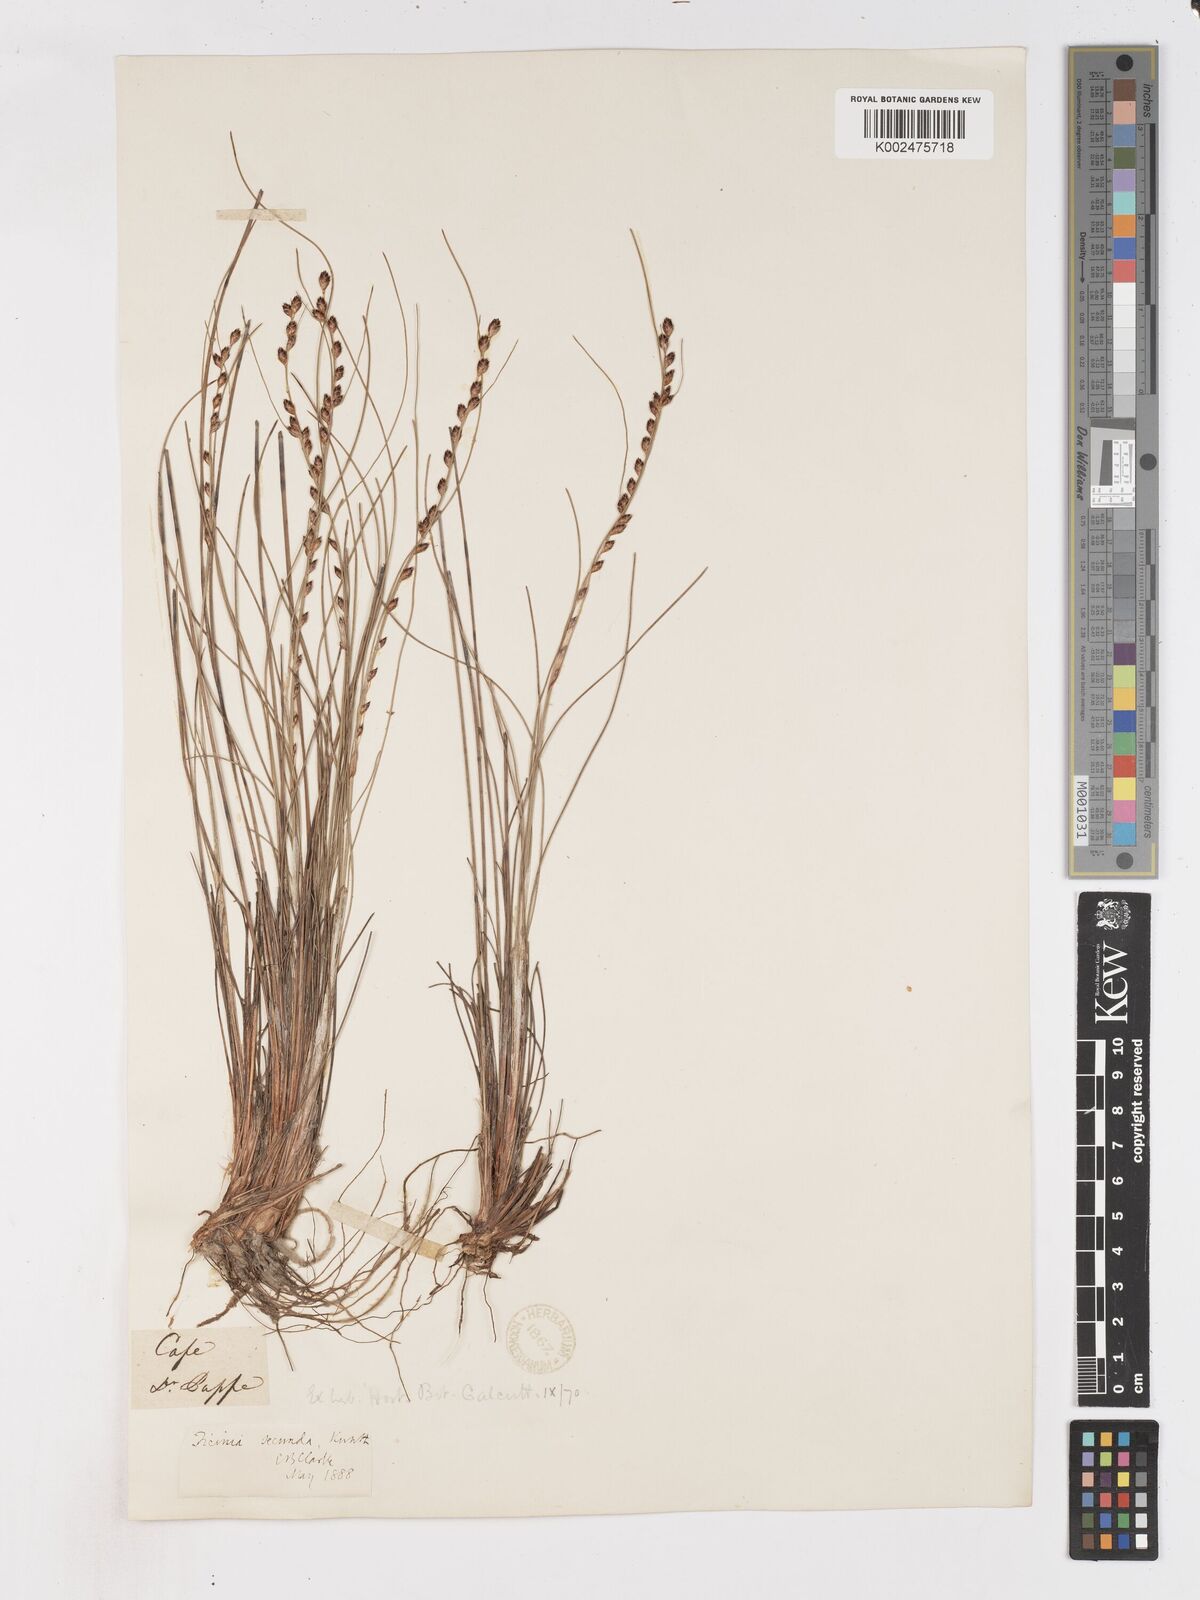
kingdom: Plantae
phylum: Tracheophyta
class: Liliopsida
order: Poales
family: Cyperaceae
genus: Ficinia
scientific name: Ficinia secunda
